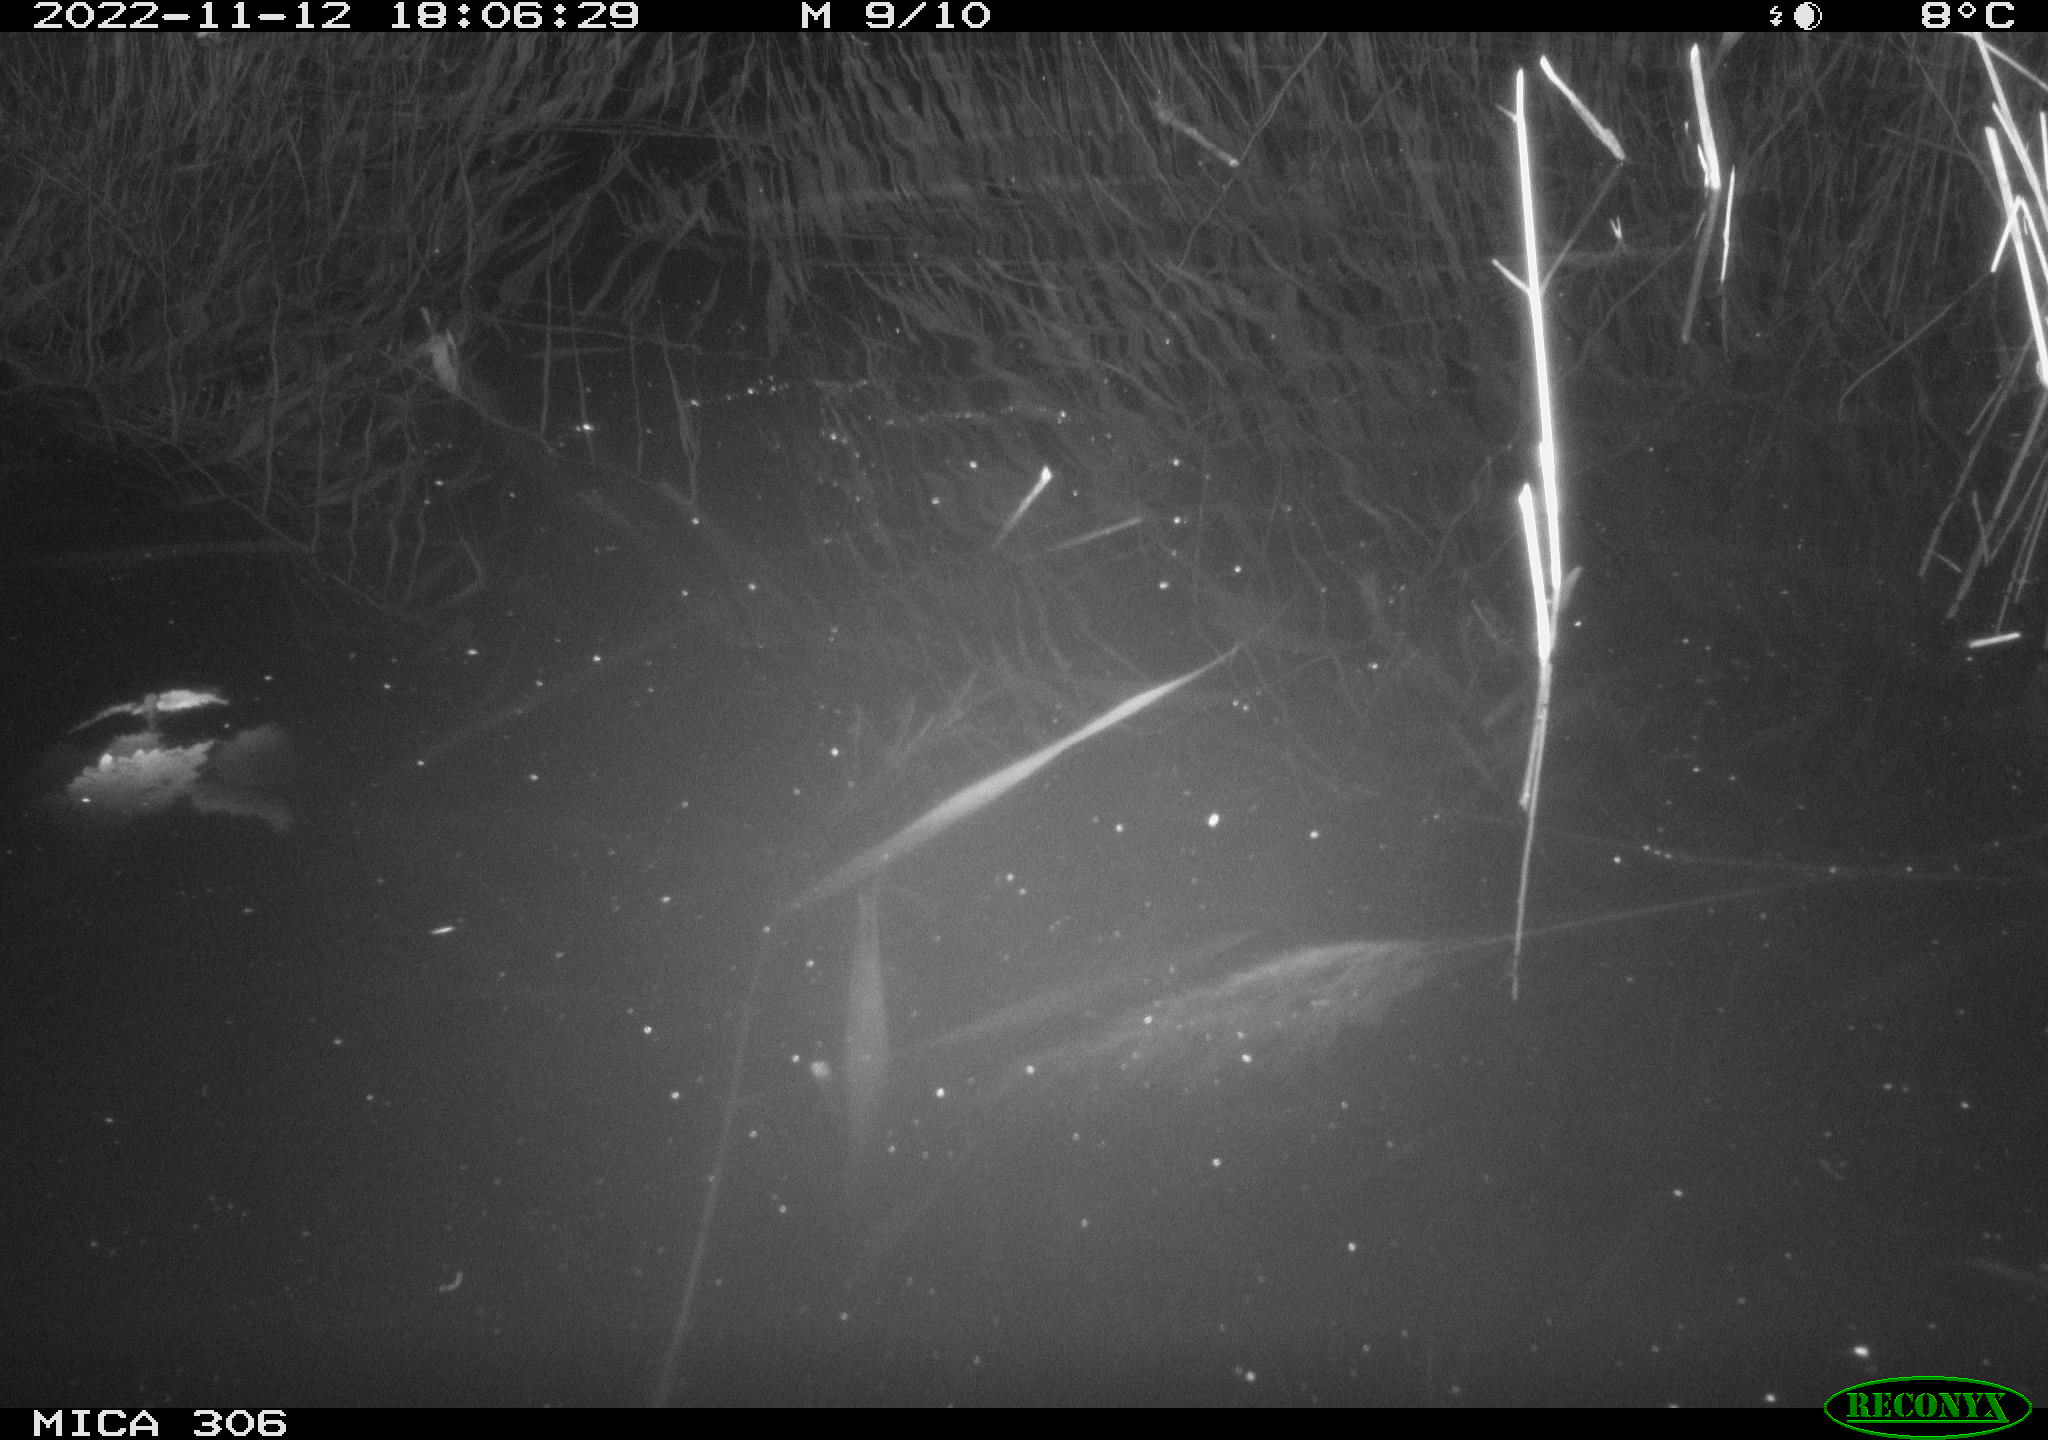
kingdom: Animalia
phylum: Chordata
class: Mammalia
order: Rodentia
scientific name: Rodentia
